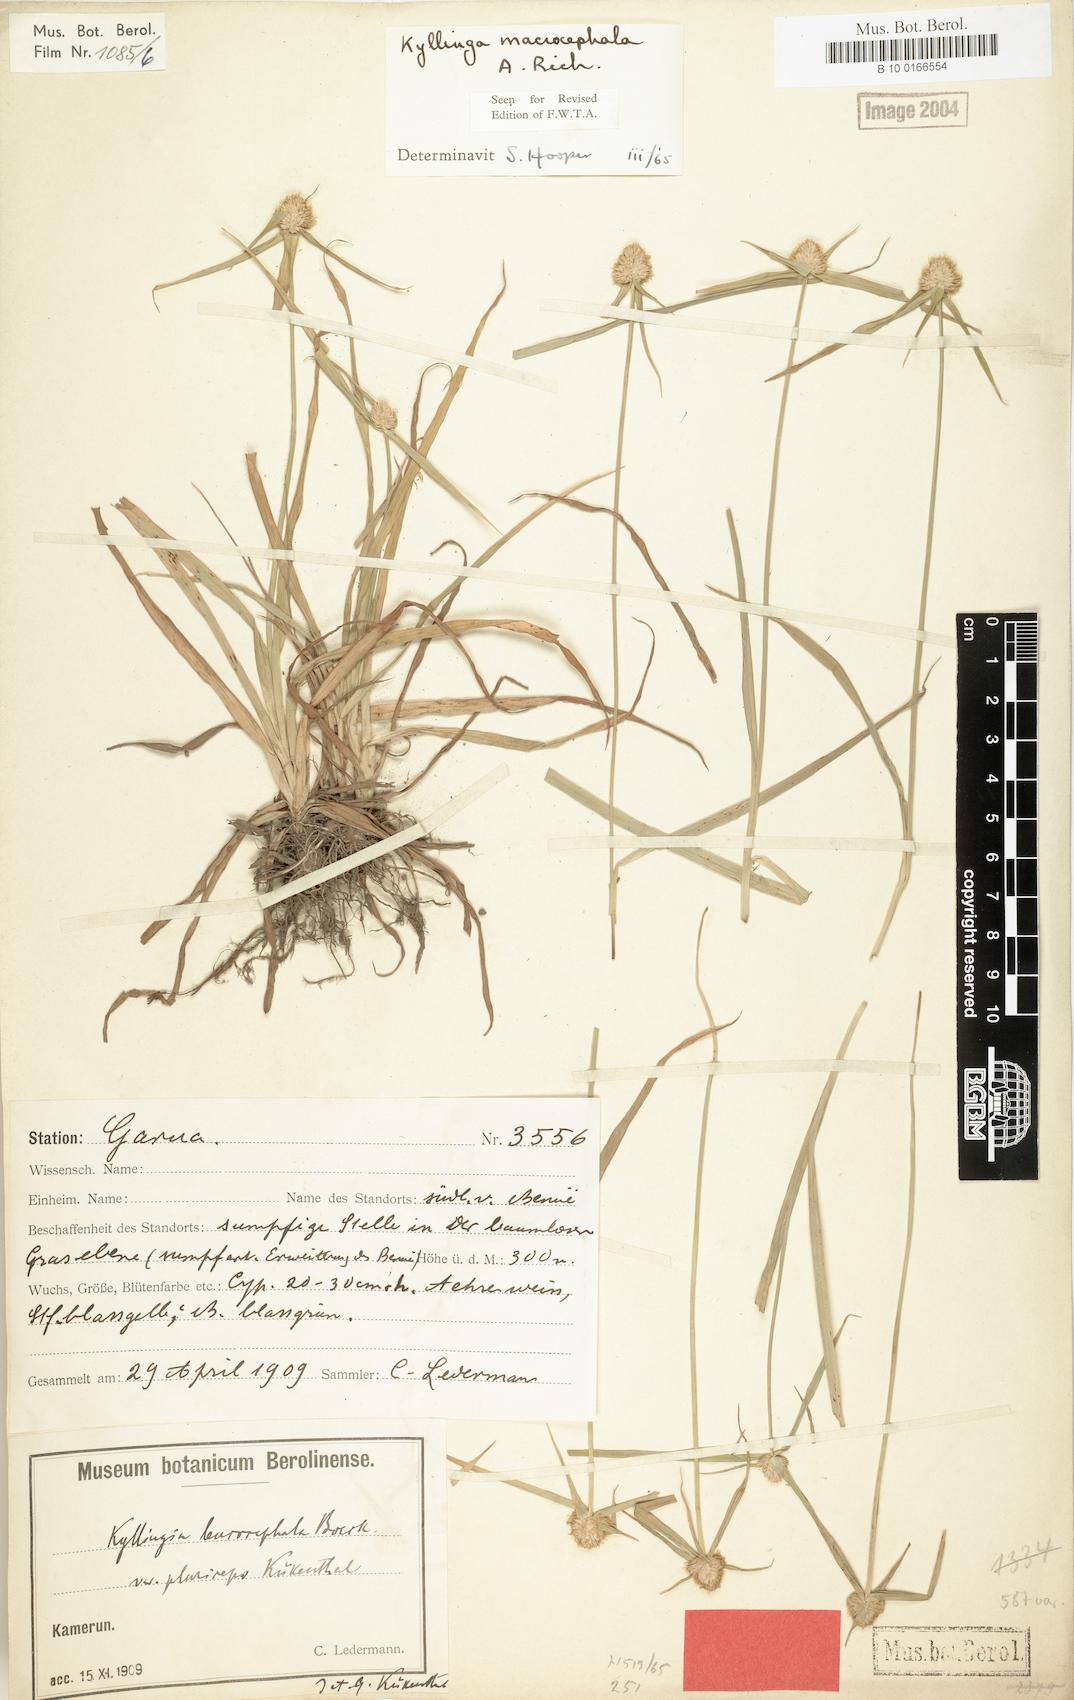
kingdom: Plantae
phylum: Tracheophyta
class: Liliopsida
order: Poales
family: Cyperaceae
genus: Cyperus
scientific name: Cyperus richardii
